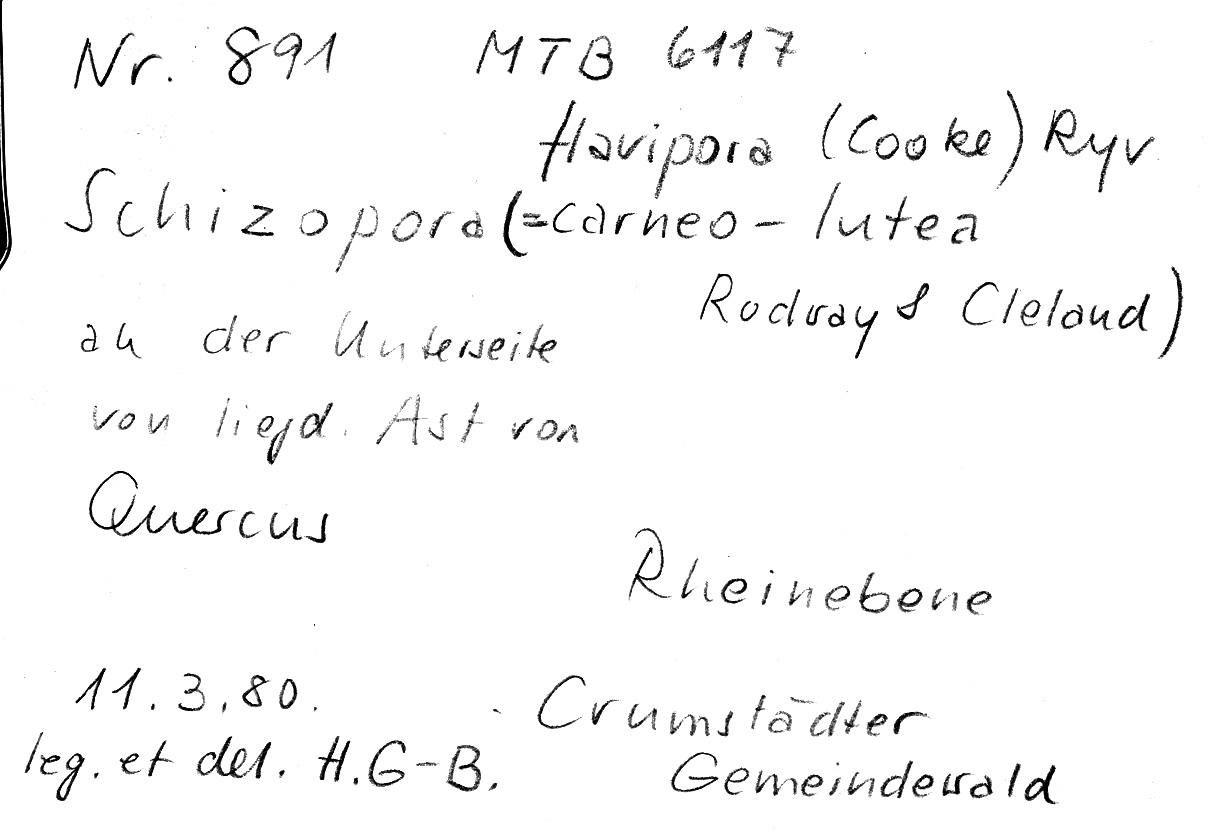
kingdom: Plantae
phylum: Tracheophyta
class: Magnoliopsida
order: Fagales
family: Fagaceae
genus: Quercus
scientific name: Quercus
